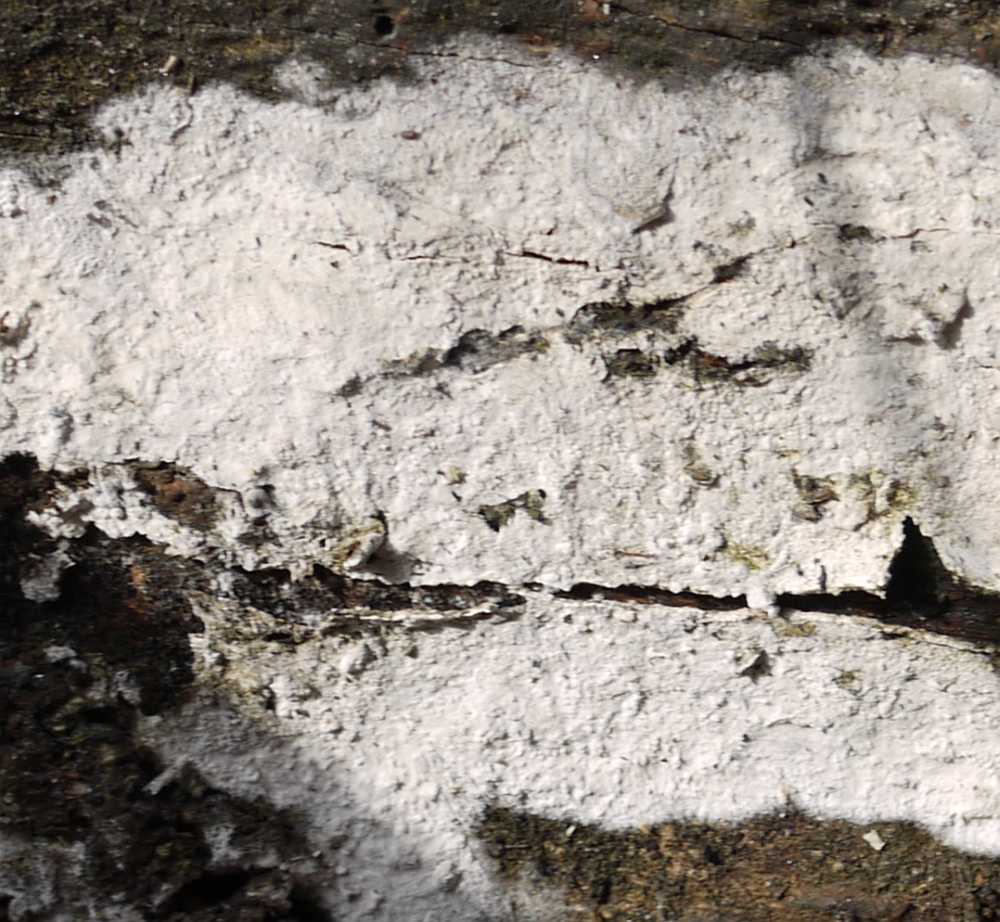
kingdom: Fungi
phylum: Basidiomycota
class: Agaricomycetes
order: Polyporales
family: Hyphodermataceae
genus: Hyphoderma
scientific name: Hyphoderma setigerum
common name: håret kalkskind
